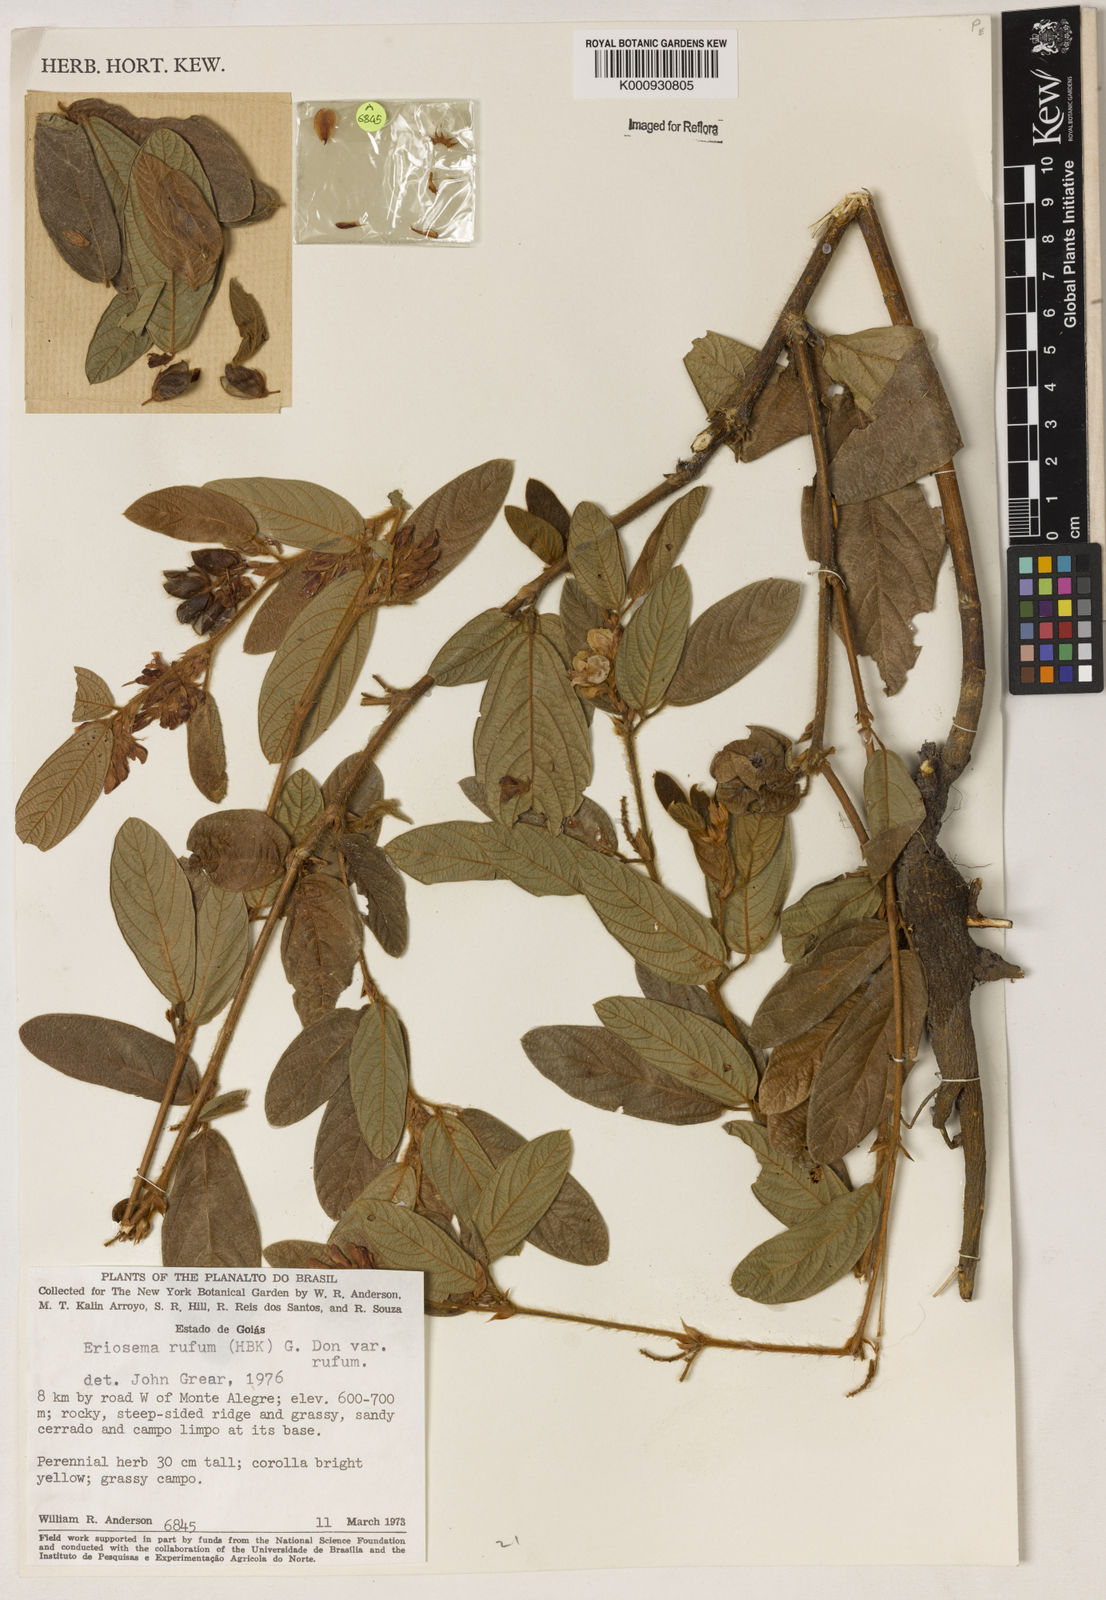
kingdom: Plantae
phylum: Tracheophyta
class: Magnoliopsida
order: Fabales
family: Fabaceae
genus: Eriosema
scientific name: Eriosema rufum
